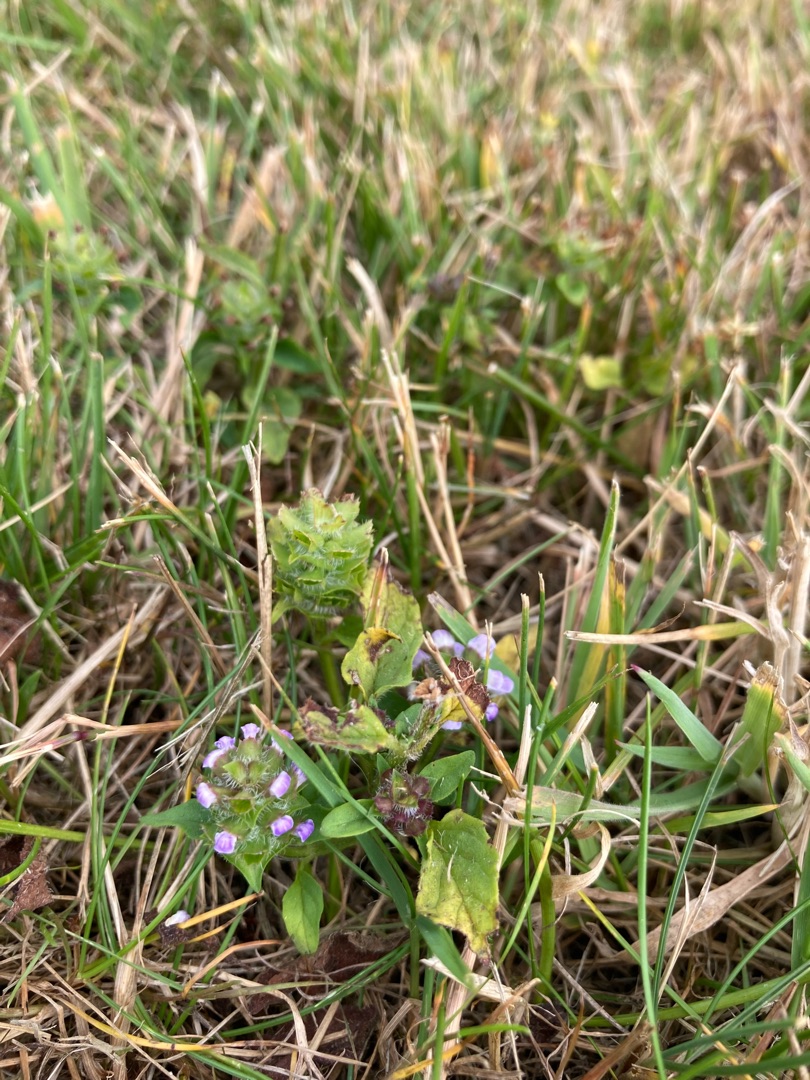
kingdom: Plantae
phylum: Tracheophyta
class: Magnoliopsida
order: Lamiales
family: Lamiaceae
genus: Prunella
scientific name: Prunella vulgaris
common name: Almindelig brunelle
